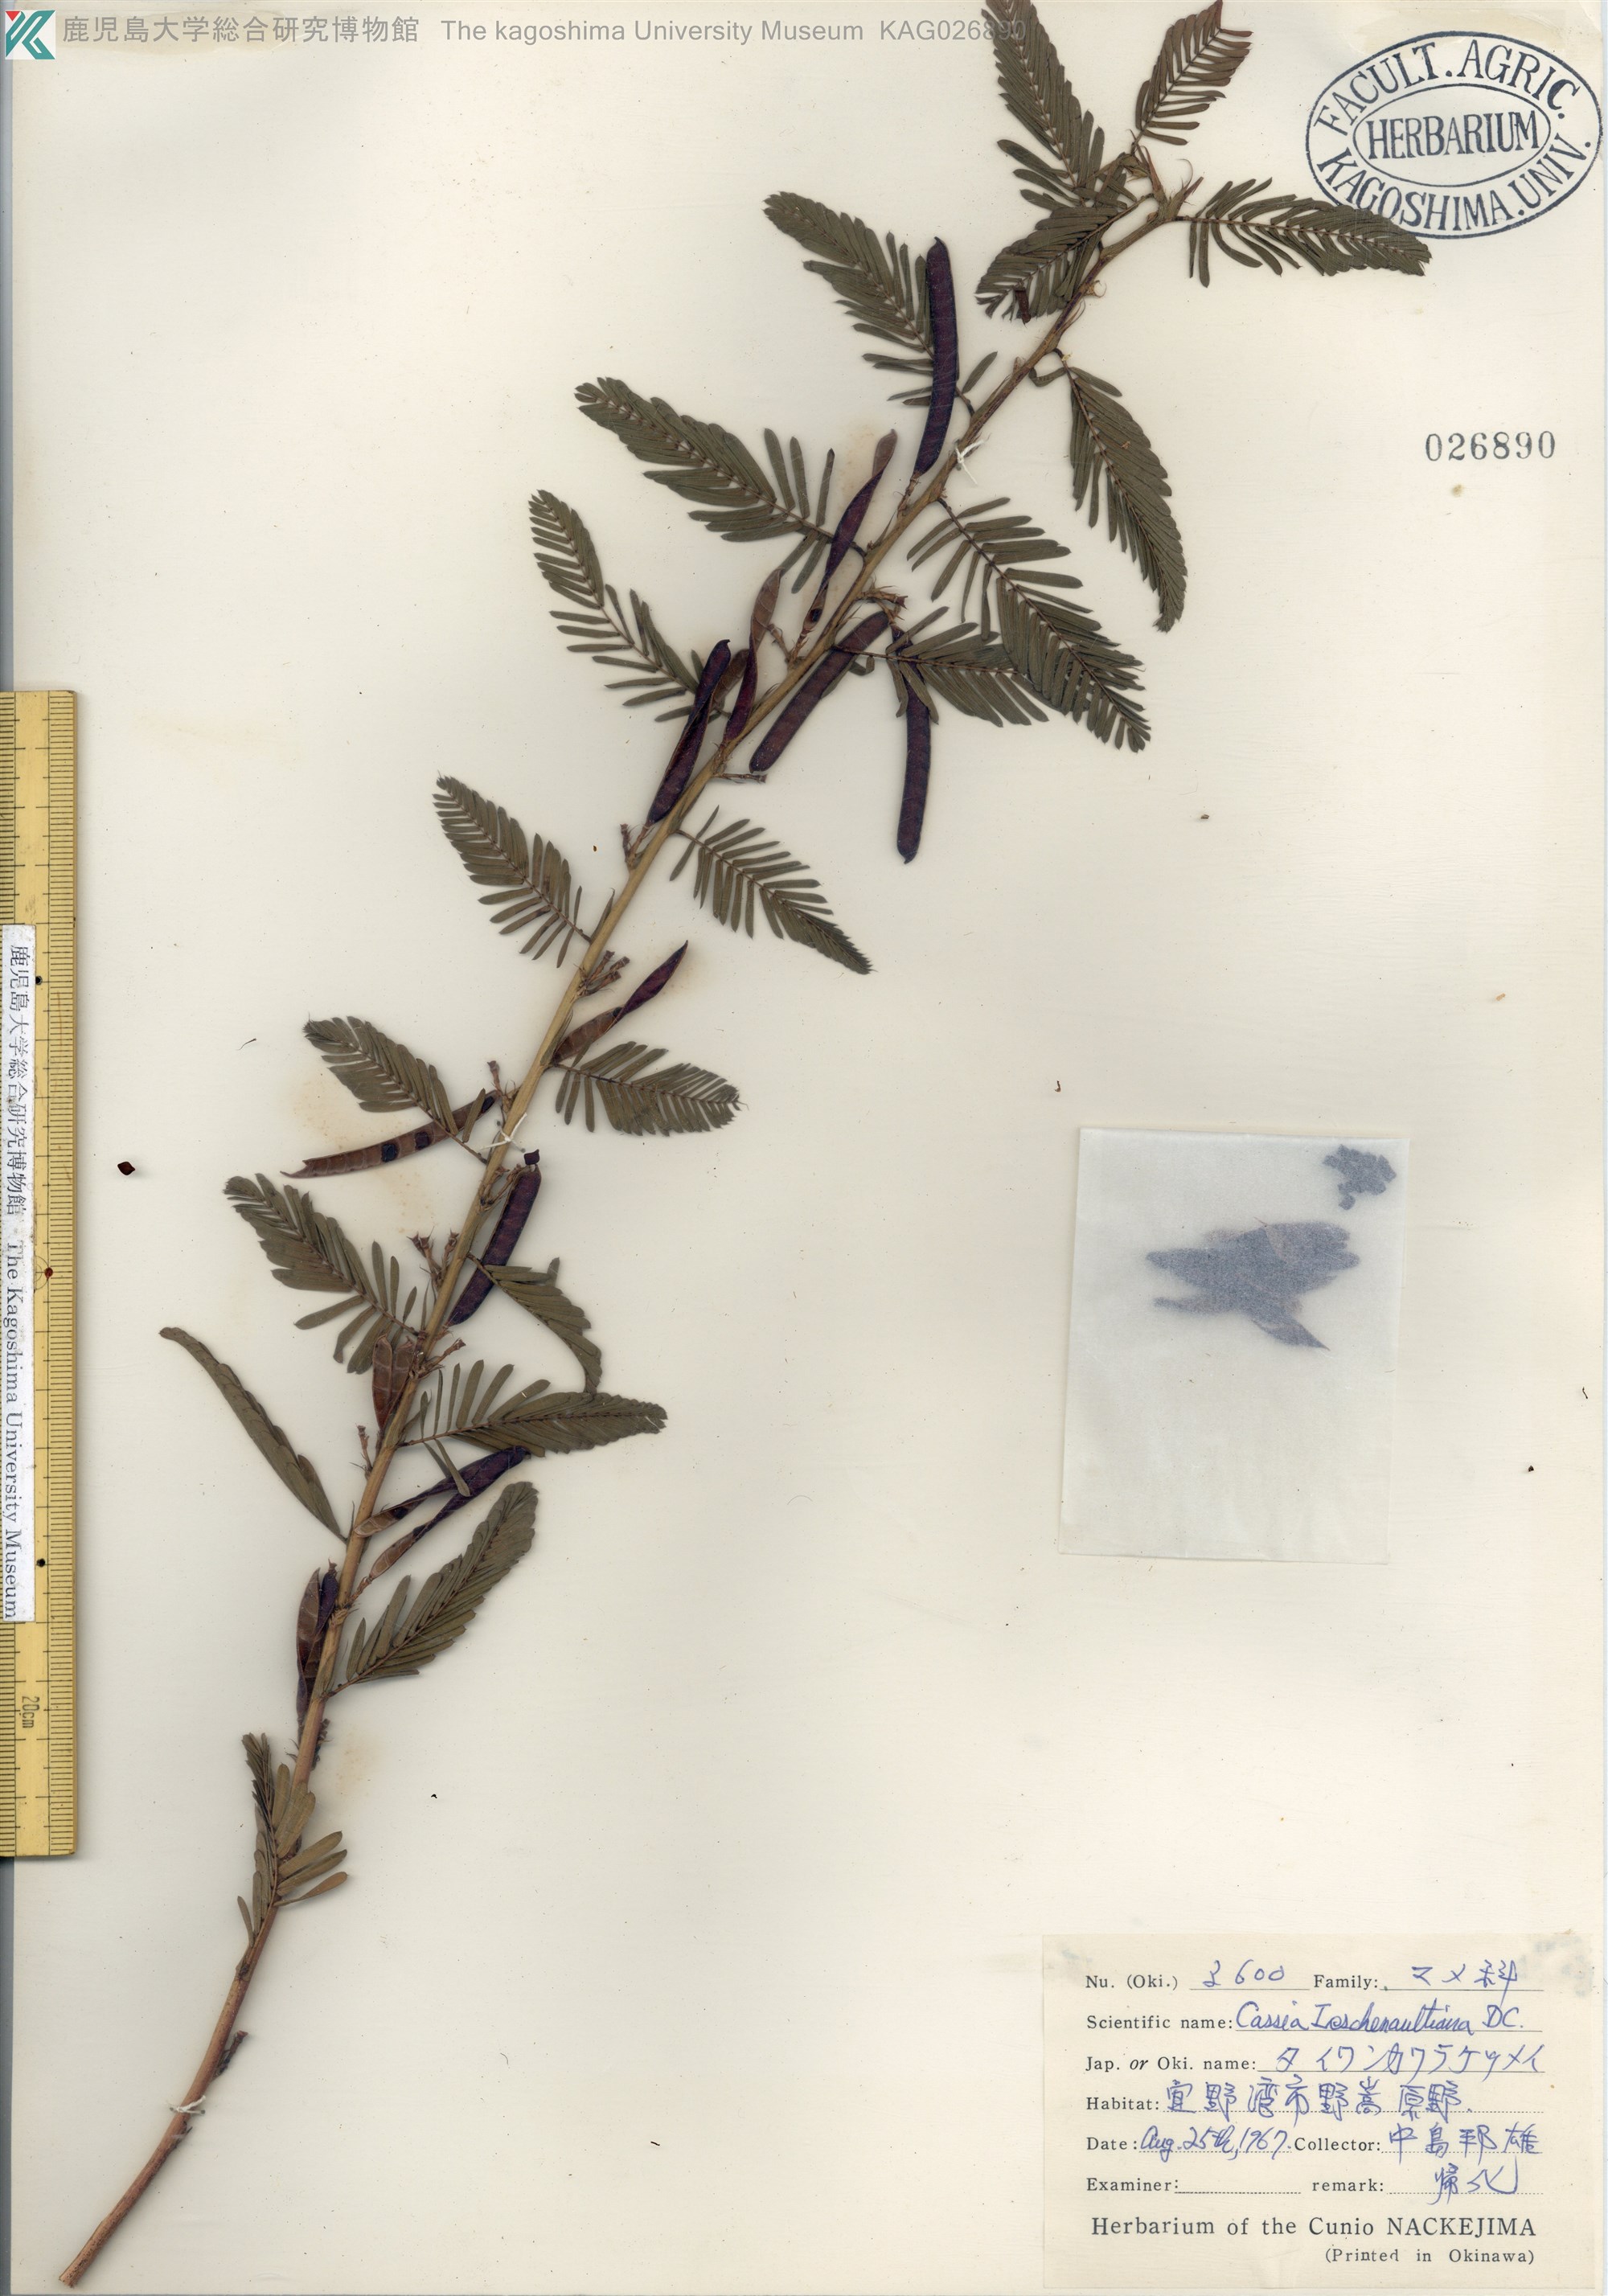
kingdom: Plantae
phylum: Tracheophyta
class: Magnoliopsida
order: Fabales
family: Fabaceae
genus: Chamaecrista
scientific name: Chamaecrista leschenaultiana
